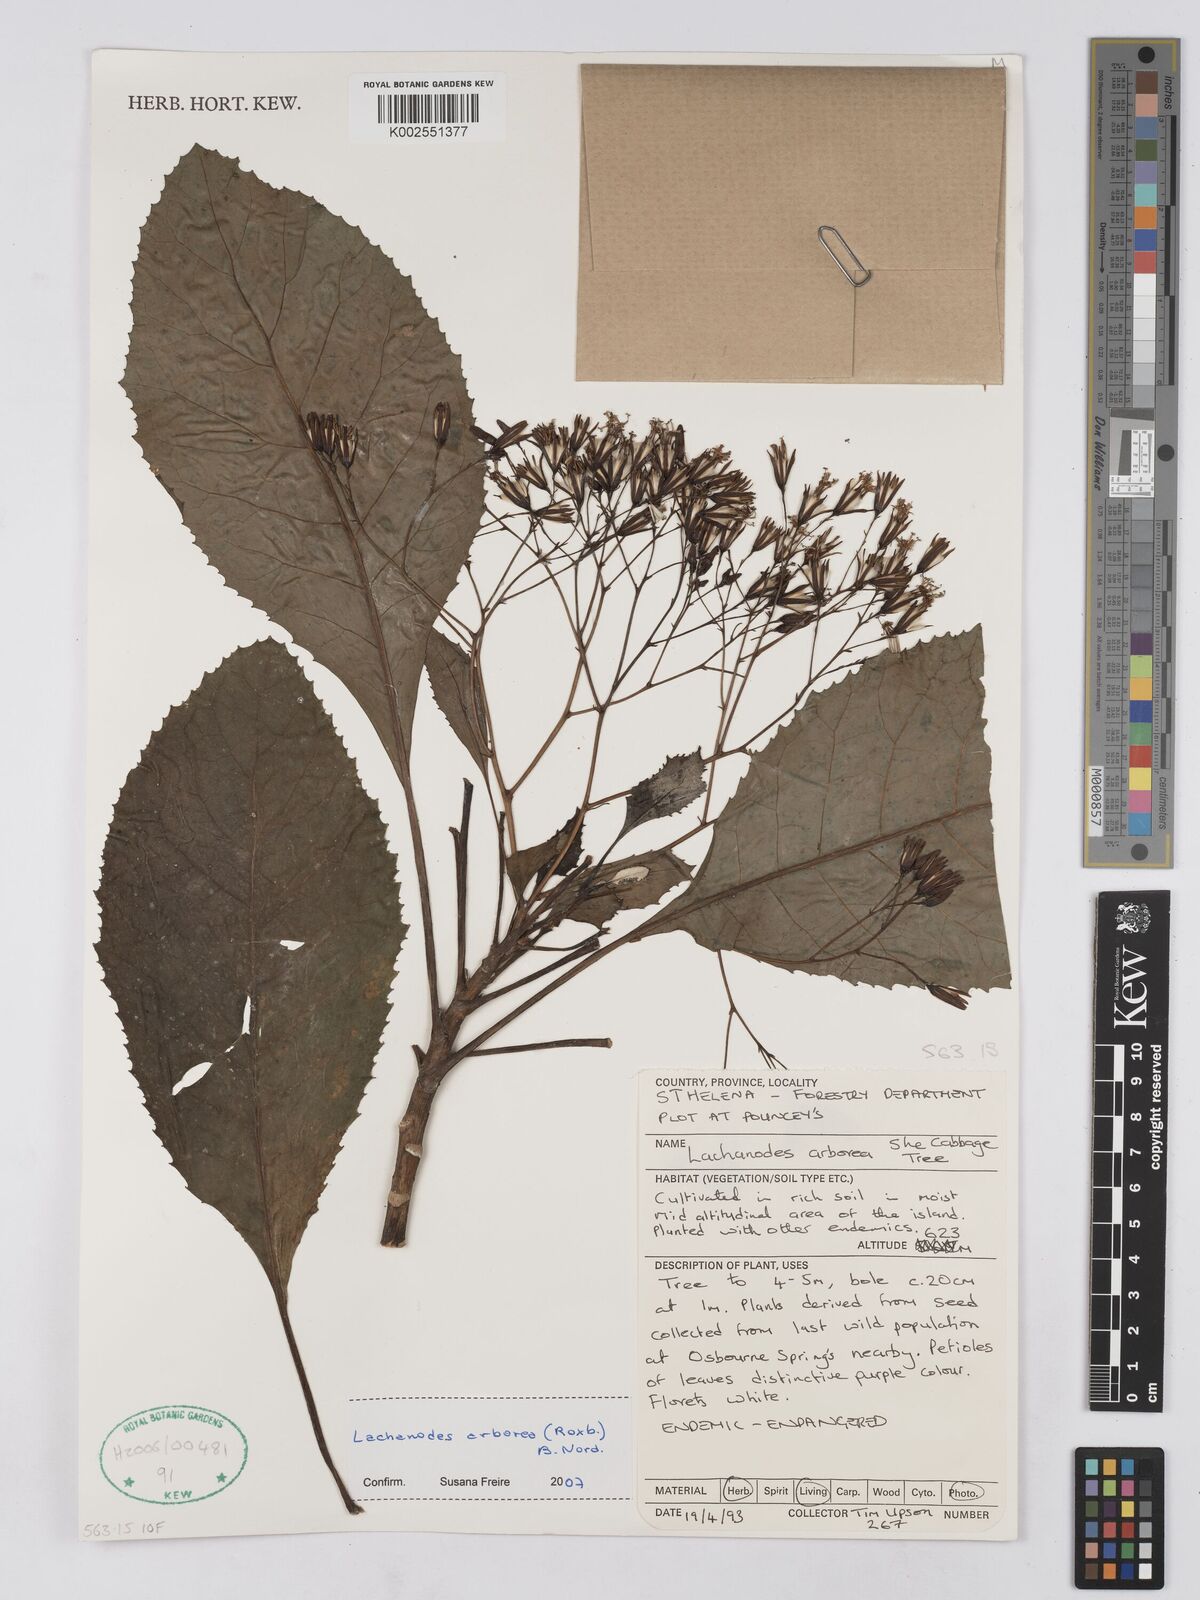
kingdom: Plantae
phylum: Tracheophyta
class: Magnoliopsida
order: Asterales
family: Asteraceae
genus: Lachanodes
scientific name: Lachanodes arborea
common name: She cabbage tree
